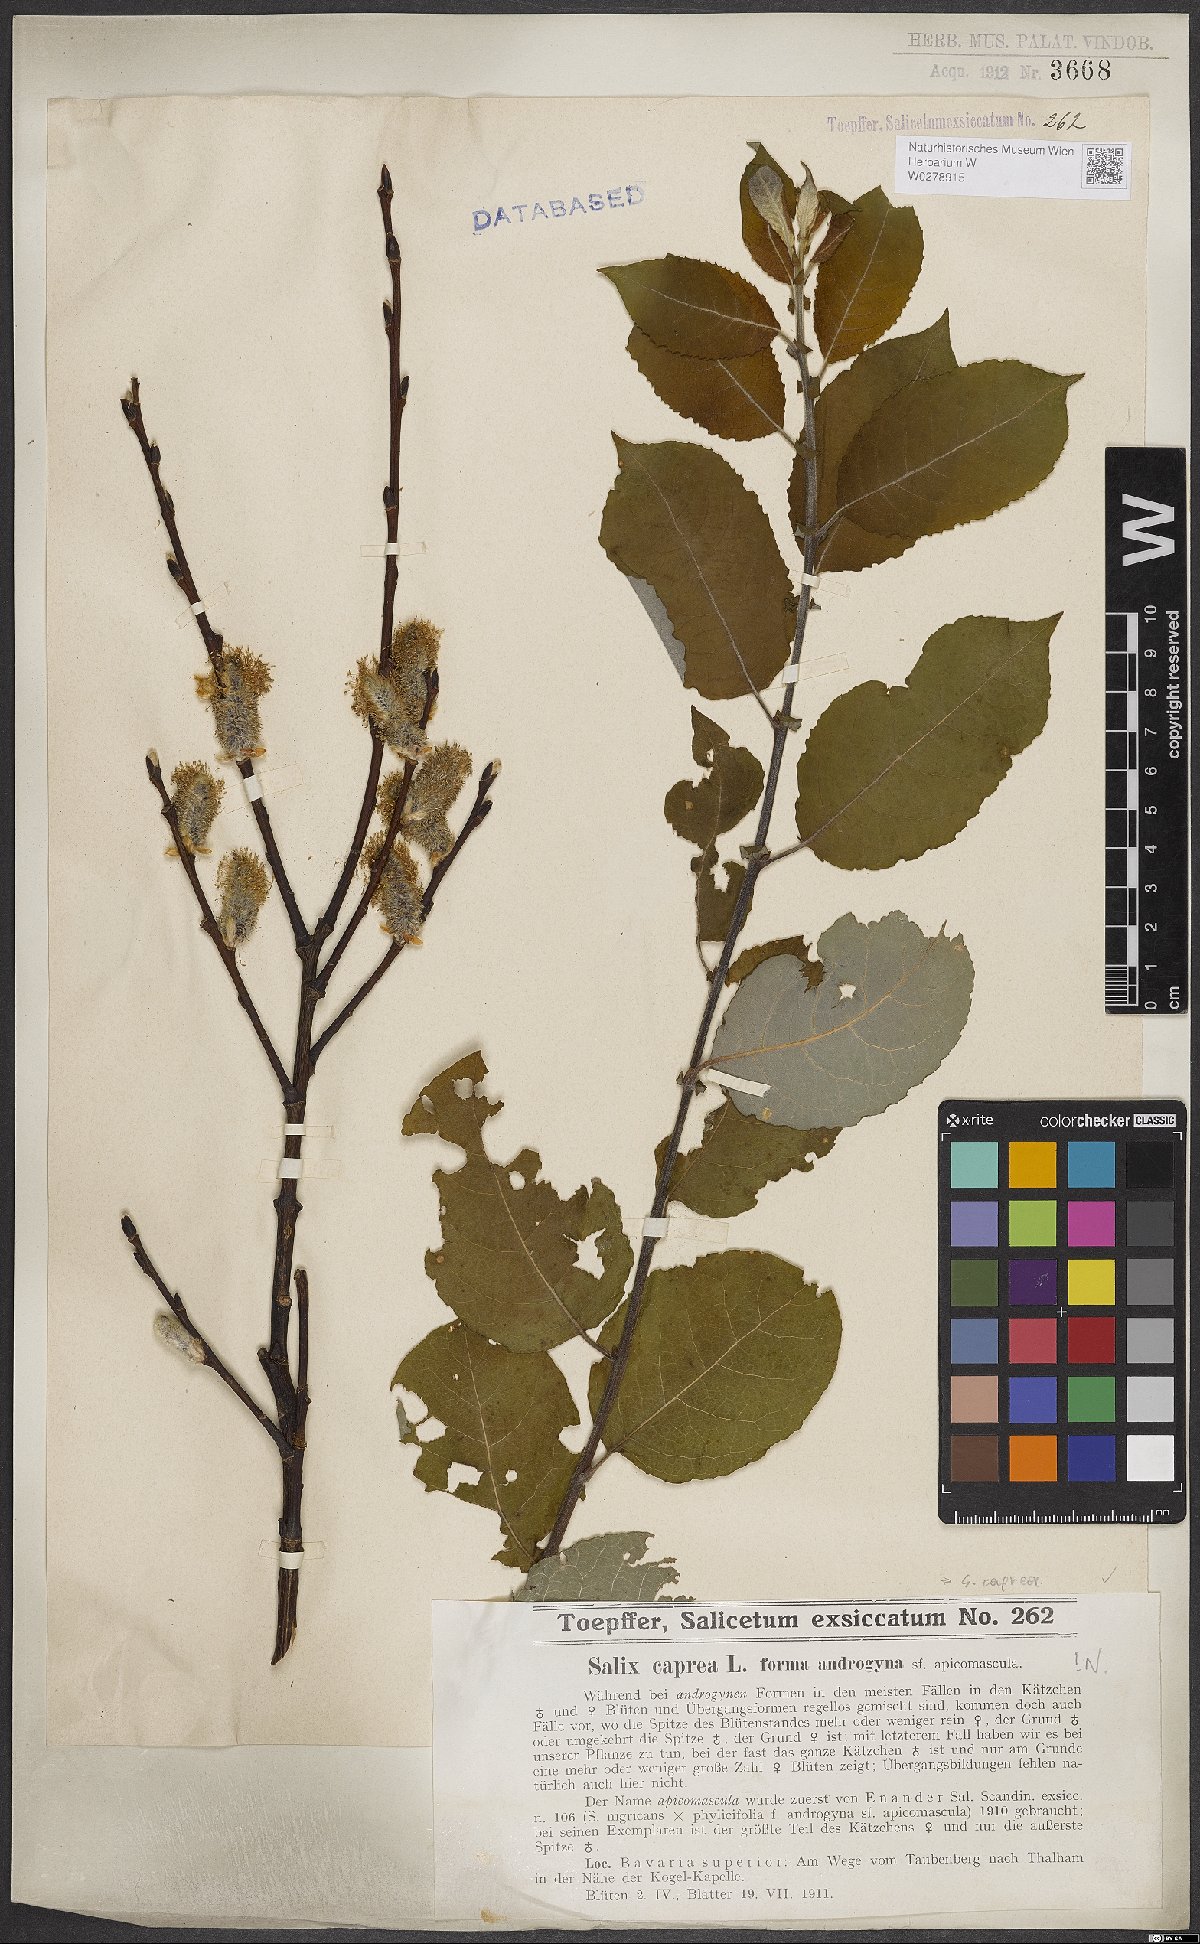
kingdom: Plantae
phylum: Tracheophyta
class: Magnoliopsida
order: Malpighiales
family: Salicaceae
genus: Salix
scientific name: Salix caprea
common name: Goat willow
